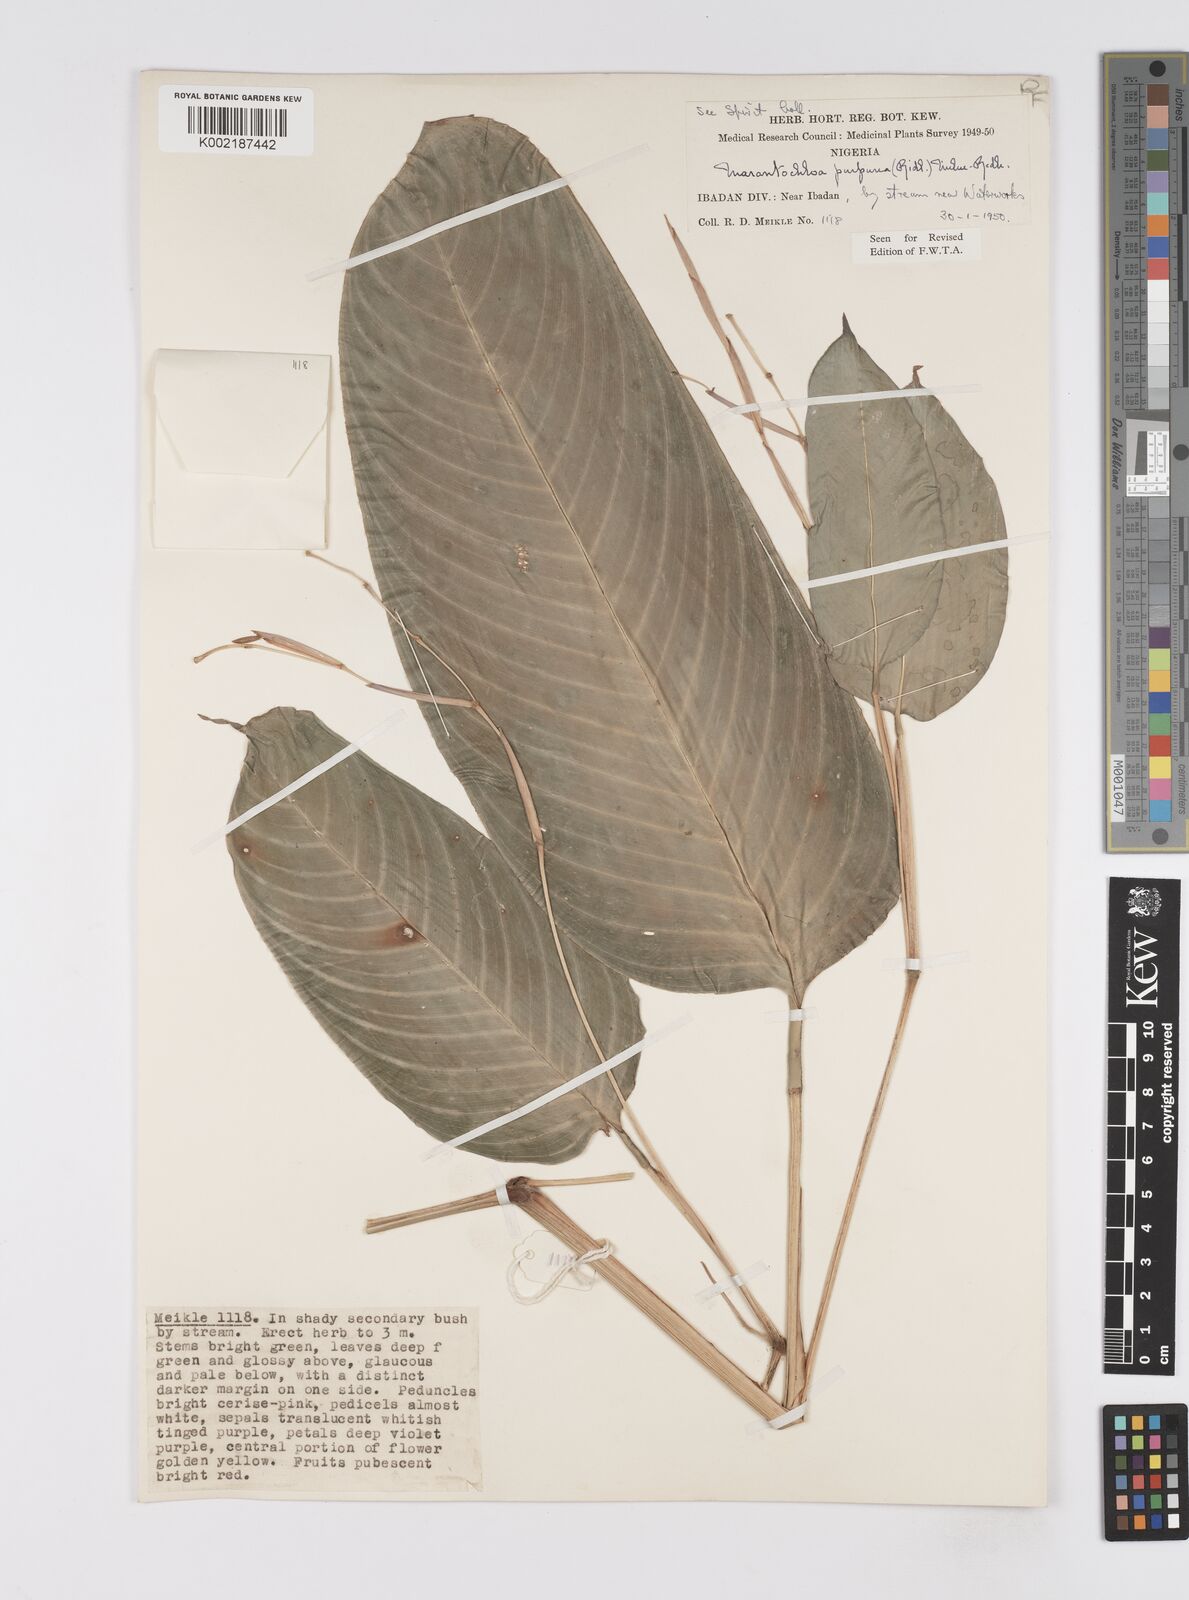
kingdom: Plantae
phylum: Tracheophyta
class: Liliopsida
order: Zingiberales
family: Marantaceae
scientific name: Marantaceae
